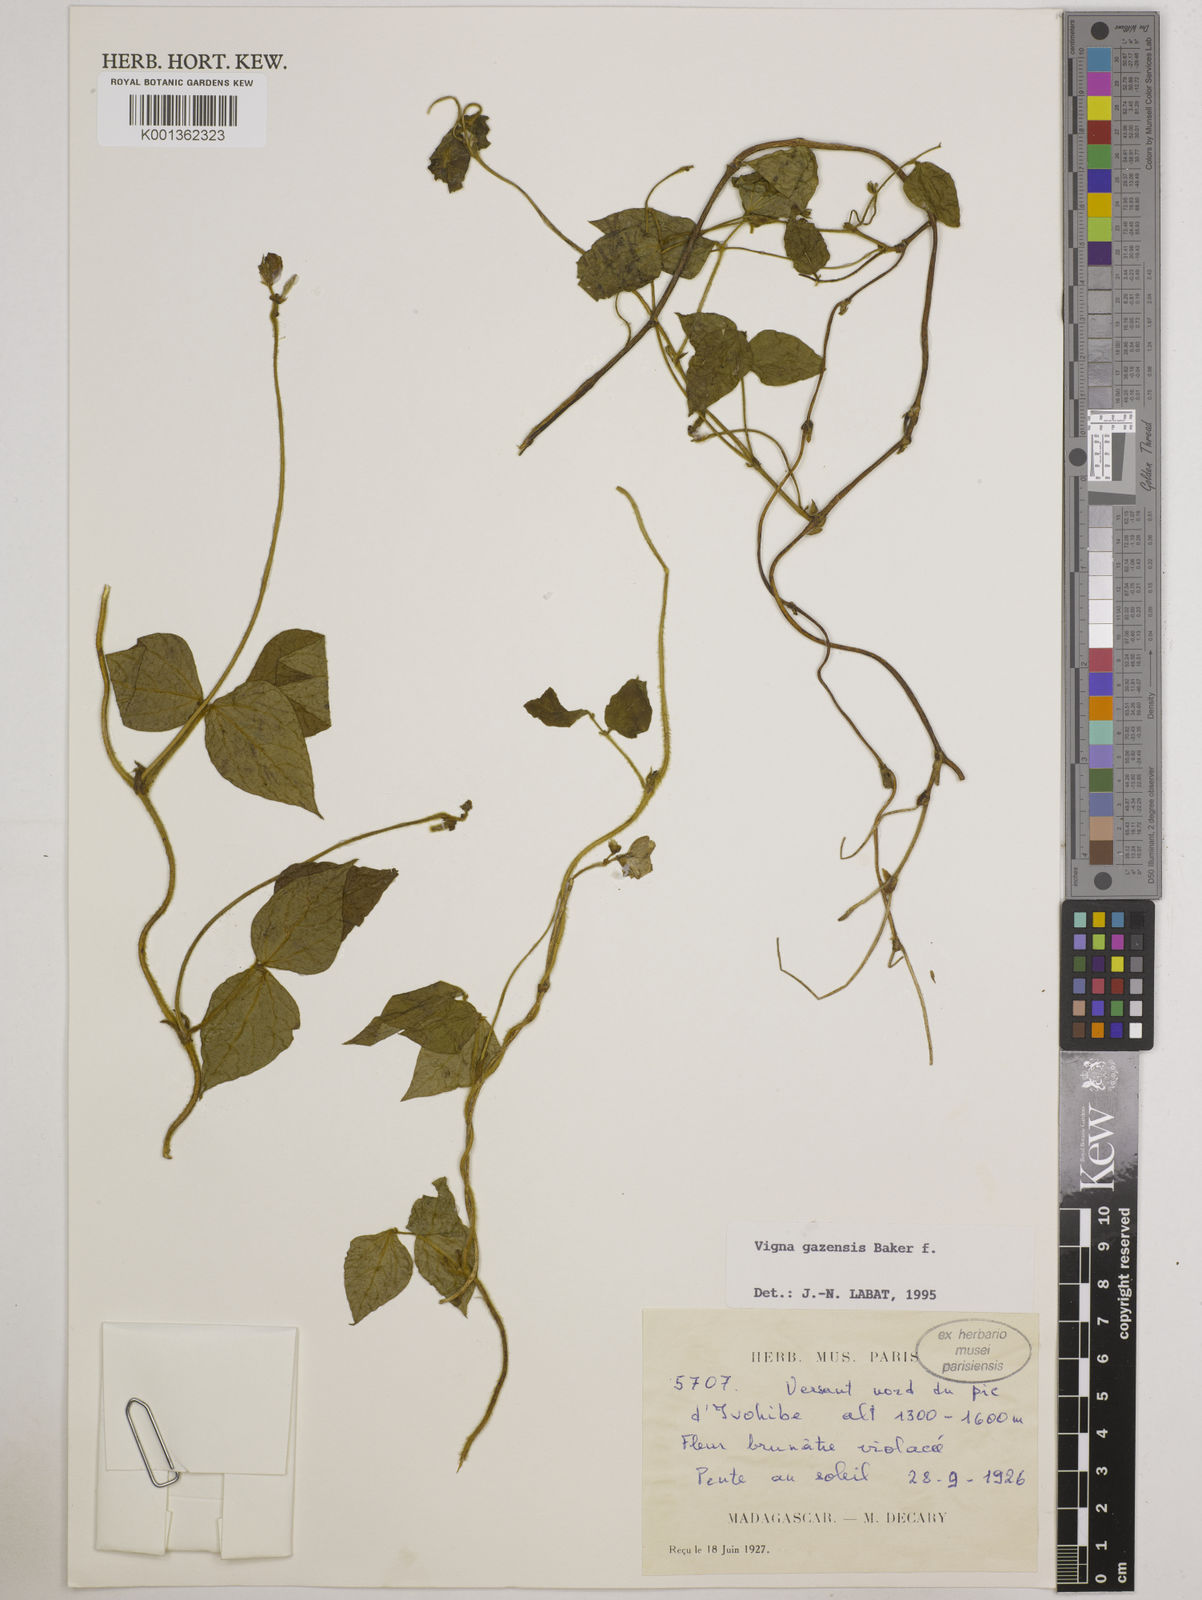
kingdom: Plantae
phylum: Tracheophyta
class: Magnoliopsida
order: Fabales
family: Fabaceae
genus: Vigna
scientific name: Vigna gazensis
